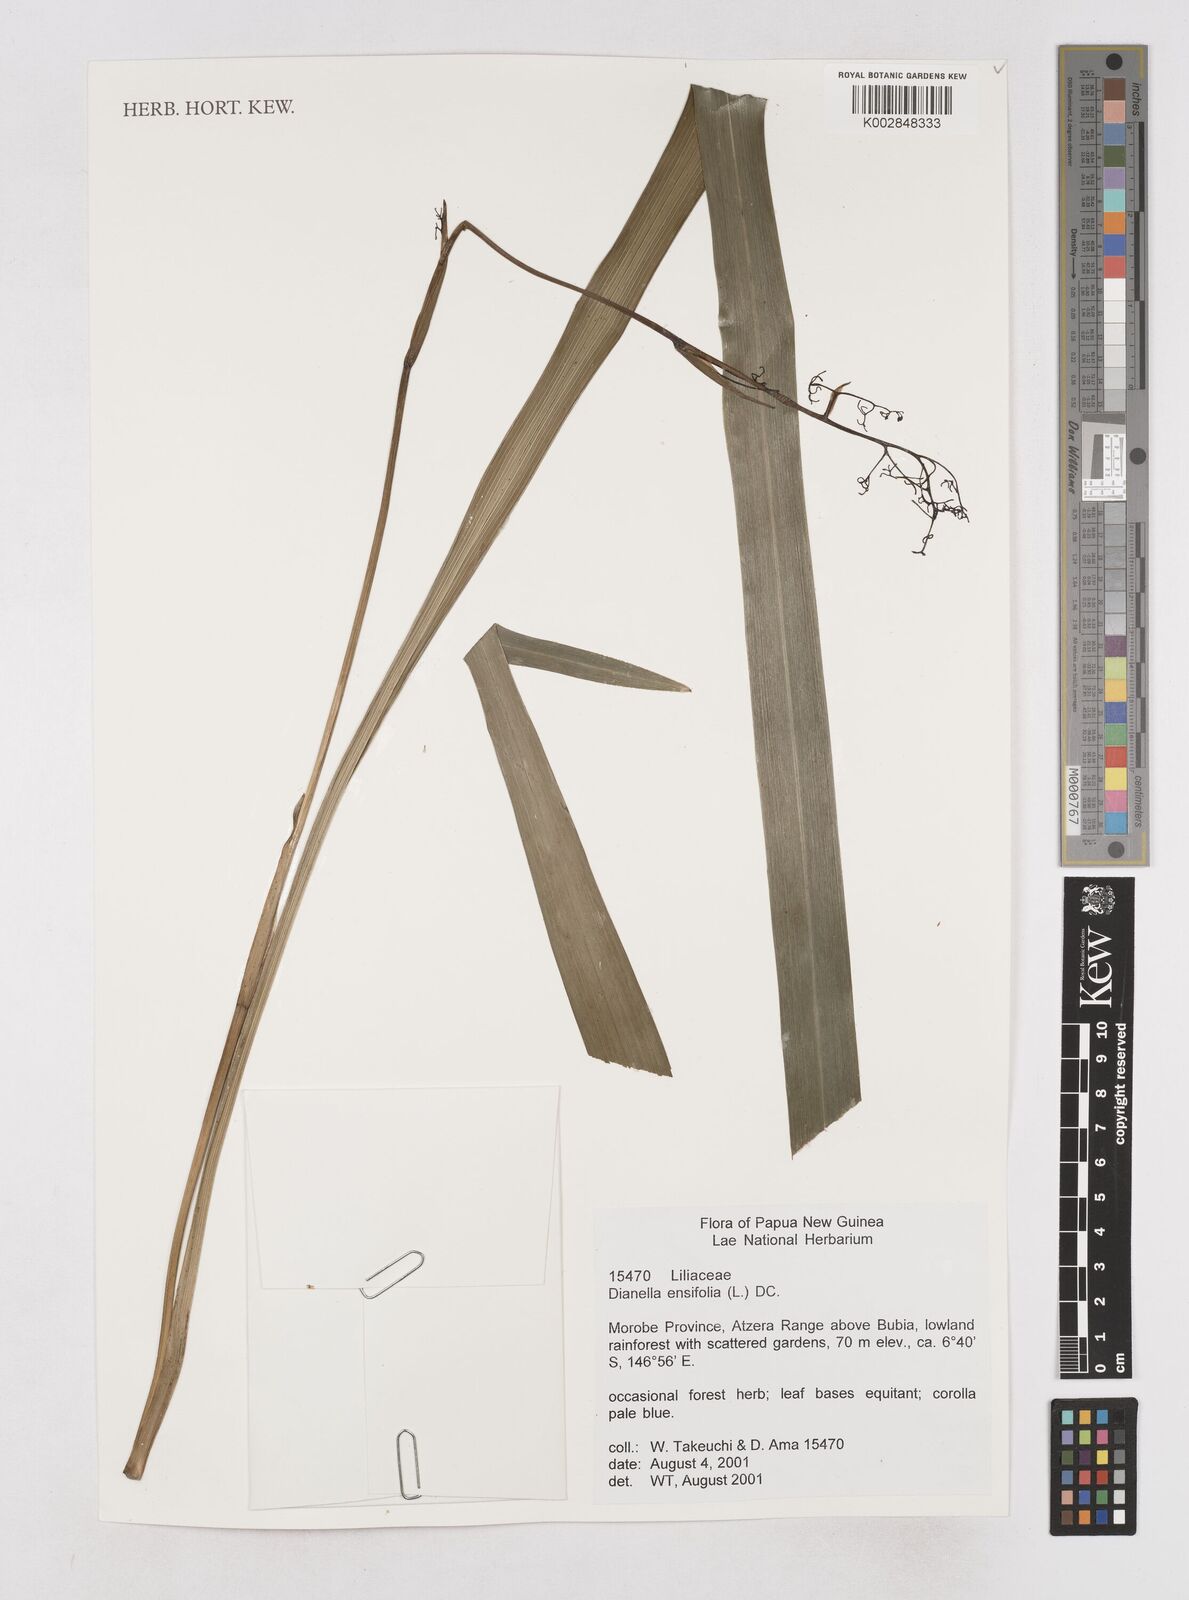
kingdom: Plantae
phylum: Tracheophyta
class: Liliopsida
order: Asparagales
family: Asphodelaceae
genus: Dianella
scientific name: Dianella ensifolia
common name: New zealand lilyplant
